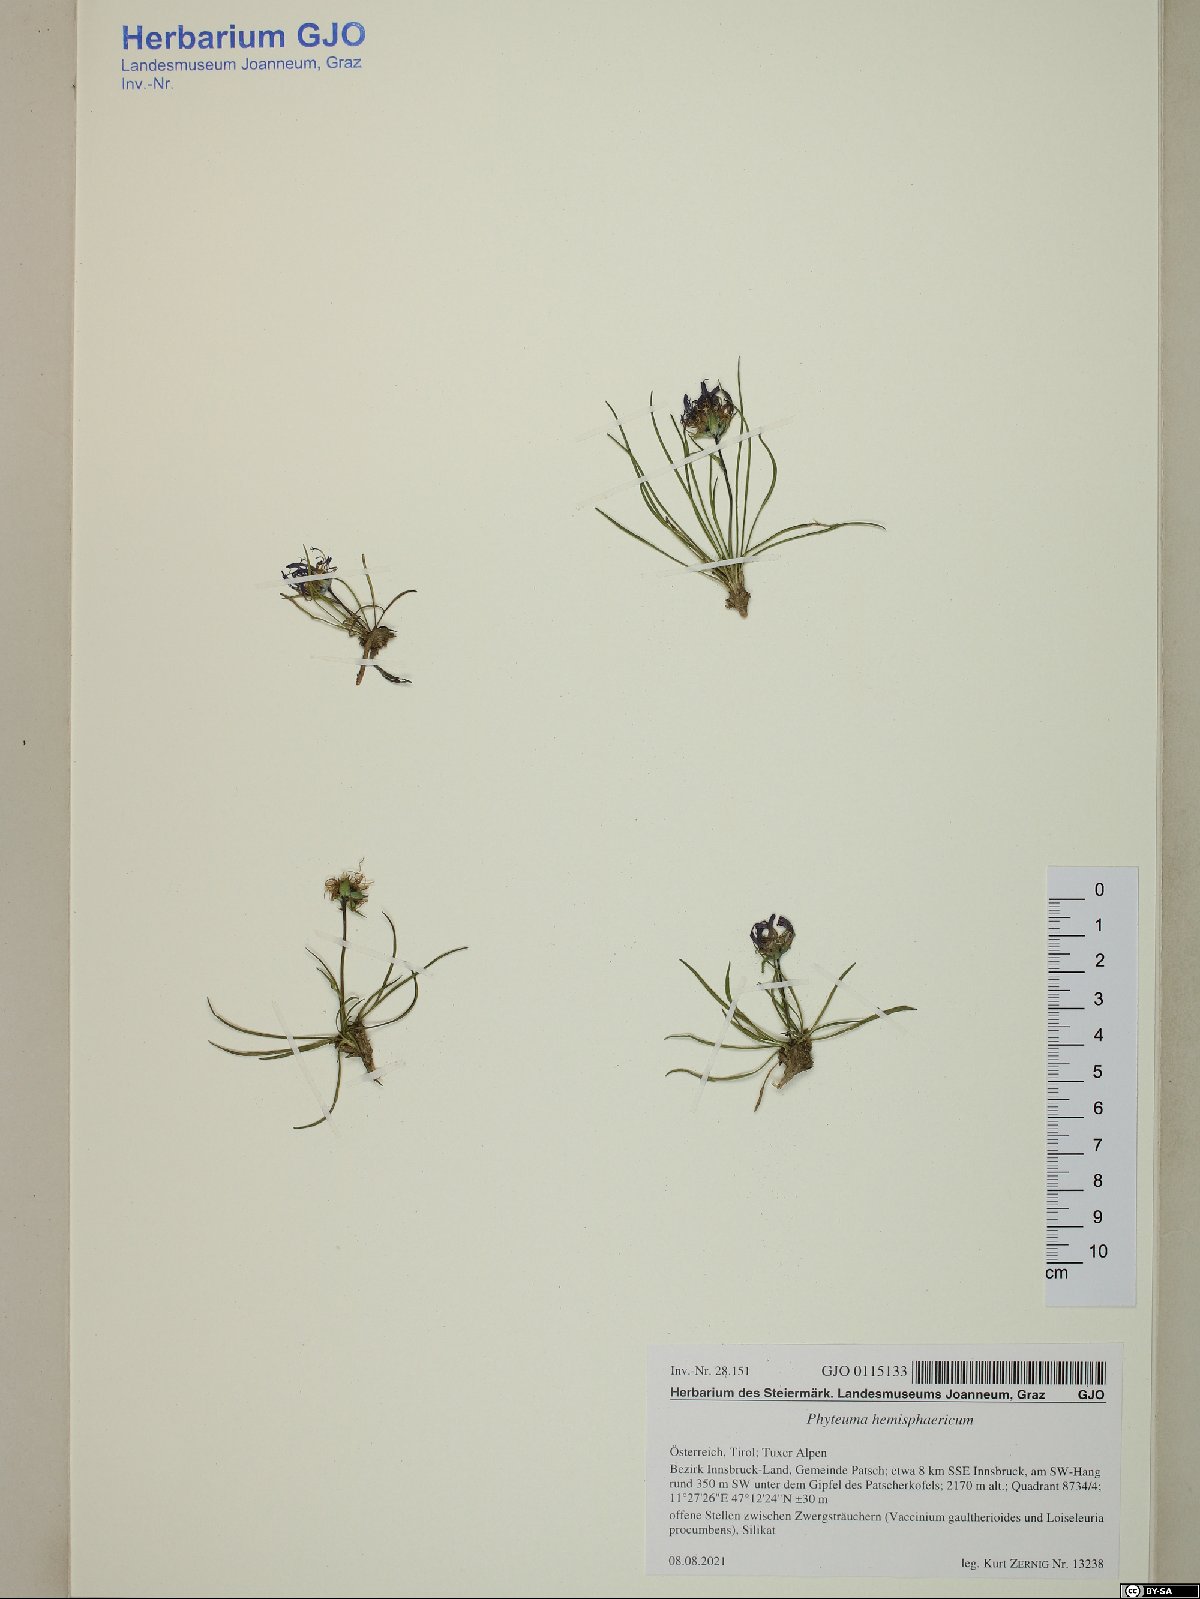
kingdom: Plantae
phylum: Tracheophyta
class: Magnoliopsida
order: Asterales
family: Campanulaceae
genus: Phyteuma
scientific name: Phyteuma hemisphaericum
